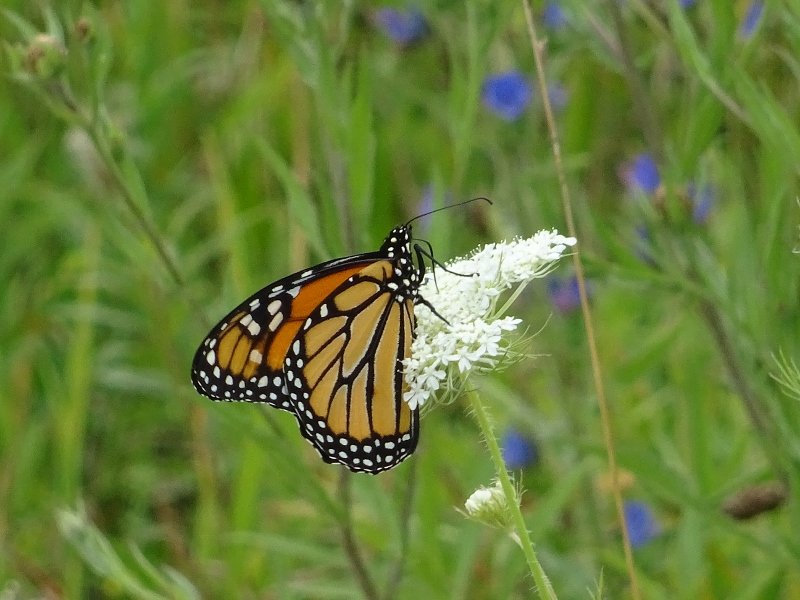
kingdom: Animalia
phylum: Arthropoda
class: Insecta
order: Lepidoptera
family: Nymphalidae
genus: Danaus
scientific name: Danaus plexippus
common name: Monarch
